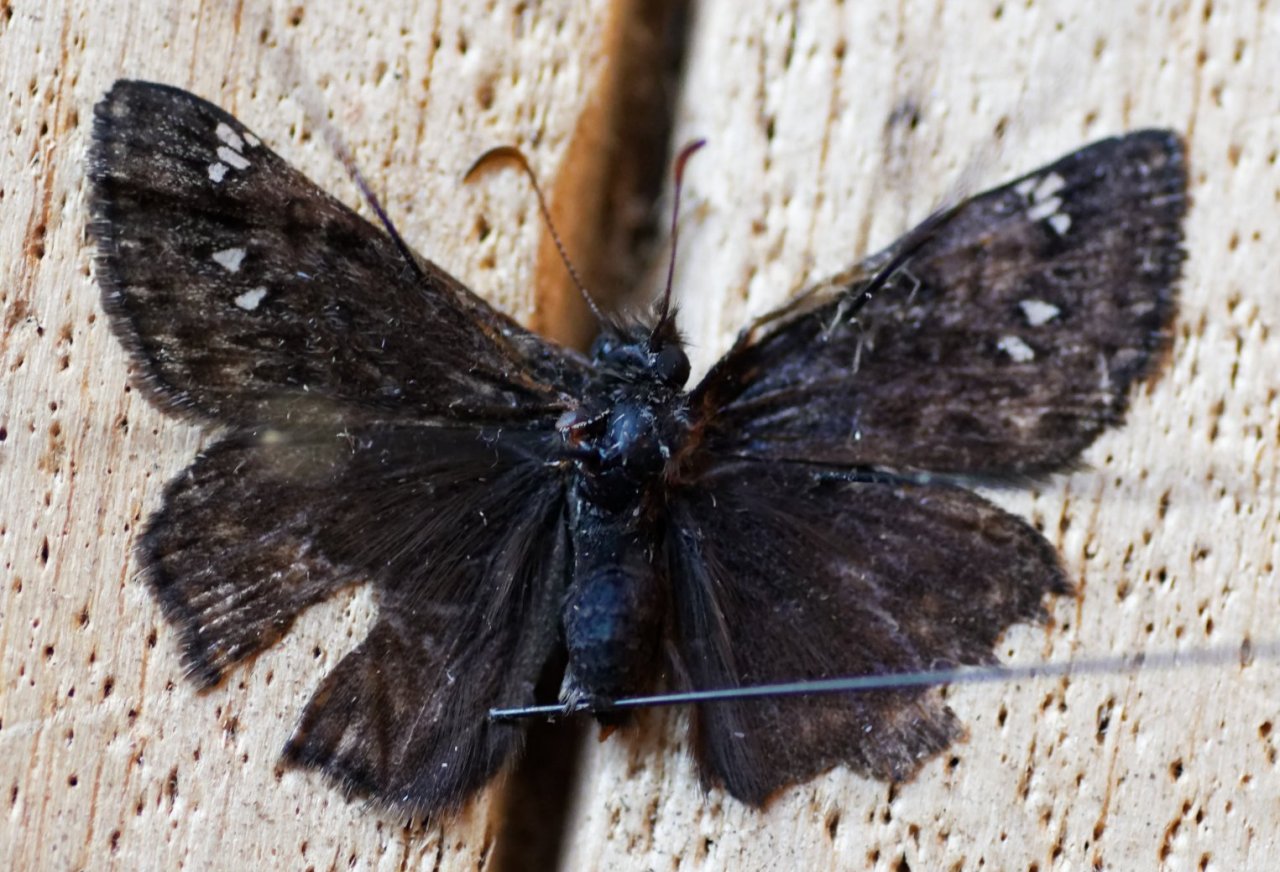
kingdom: Animalia
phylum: Arthropoda
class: Insecta
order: Lepidoptera
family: Hesperiidae
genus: Gesta
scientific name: Gesta
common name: Juvenal's Duskywing
